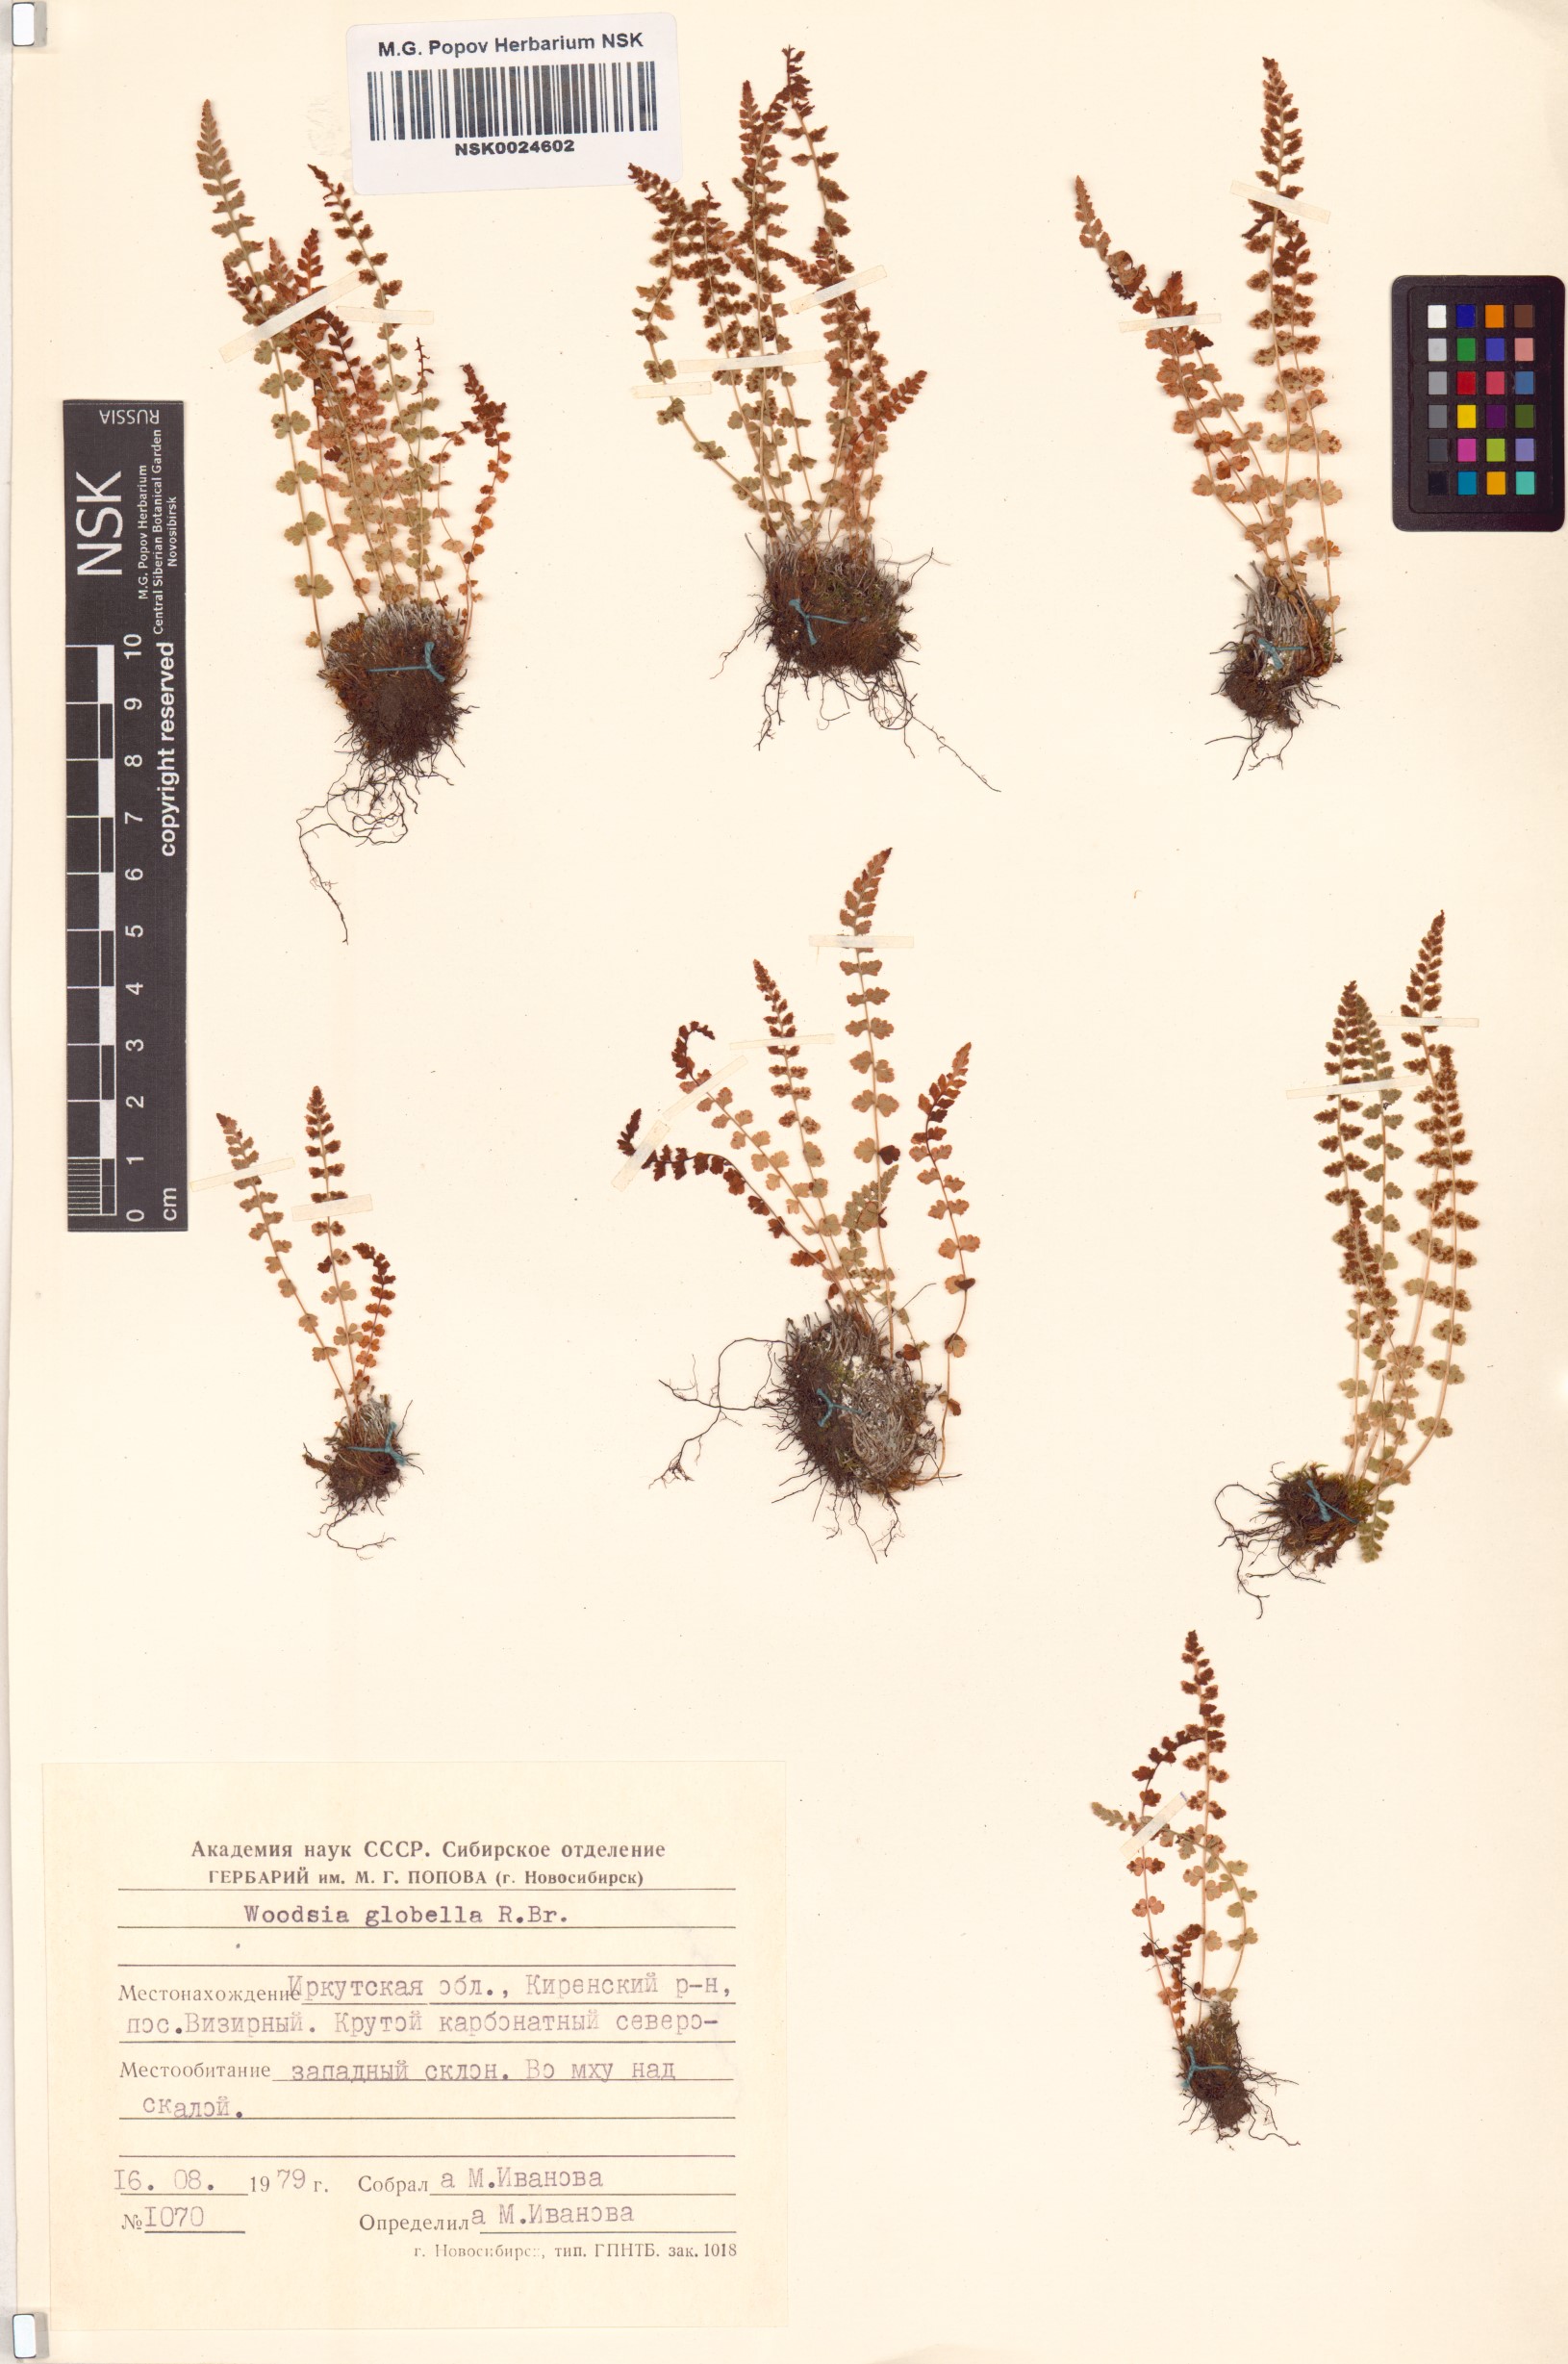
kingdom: Plantae
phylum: Tracheophyta
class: Polypodiopsida
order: Polypodiales
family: Woodsiaceae
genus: Woodsia
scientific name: Woodsia glabella
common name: Smooth woodsia
